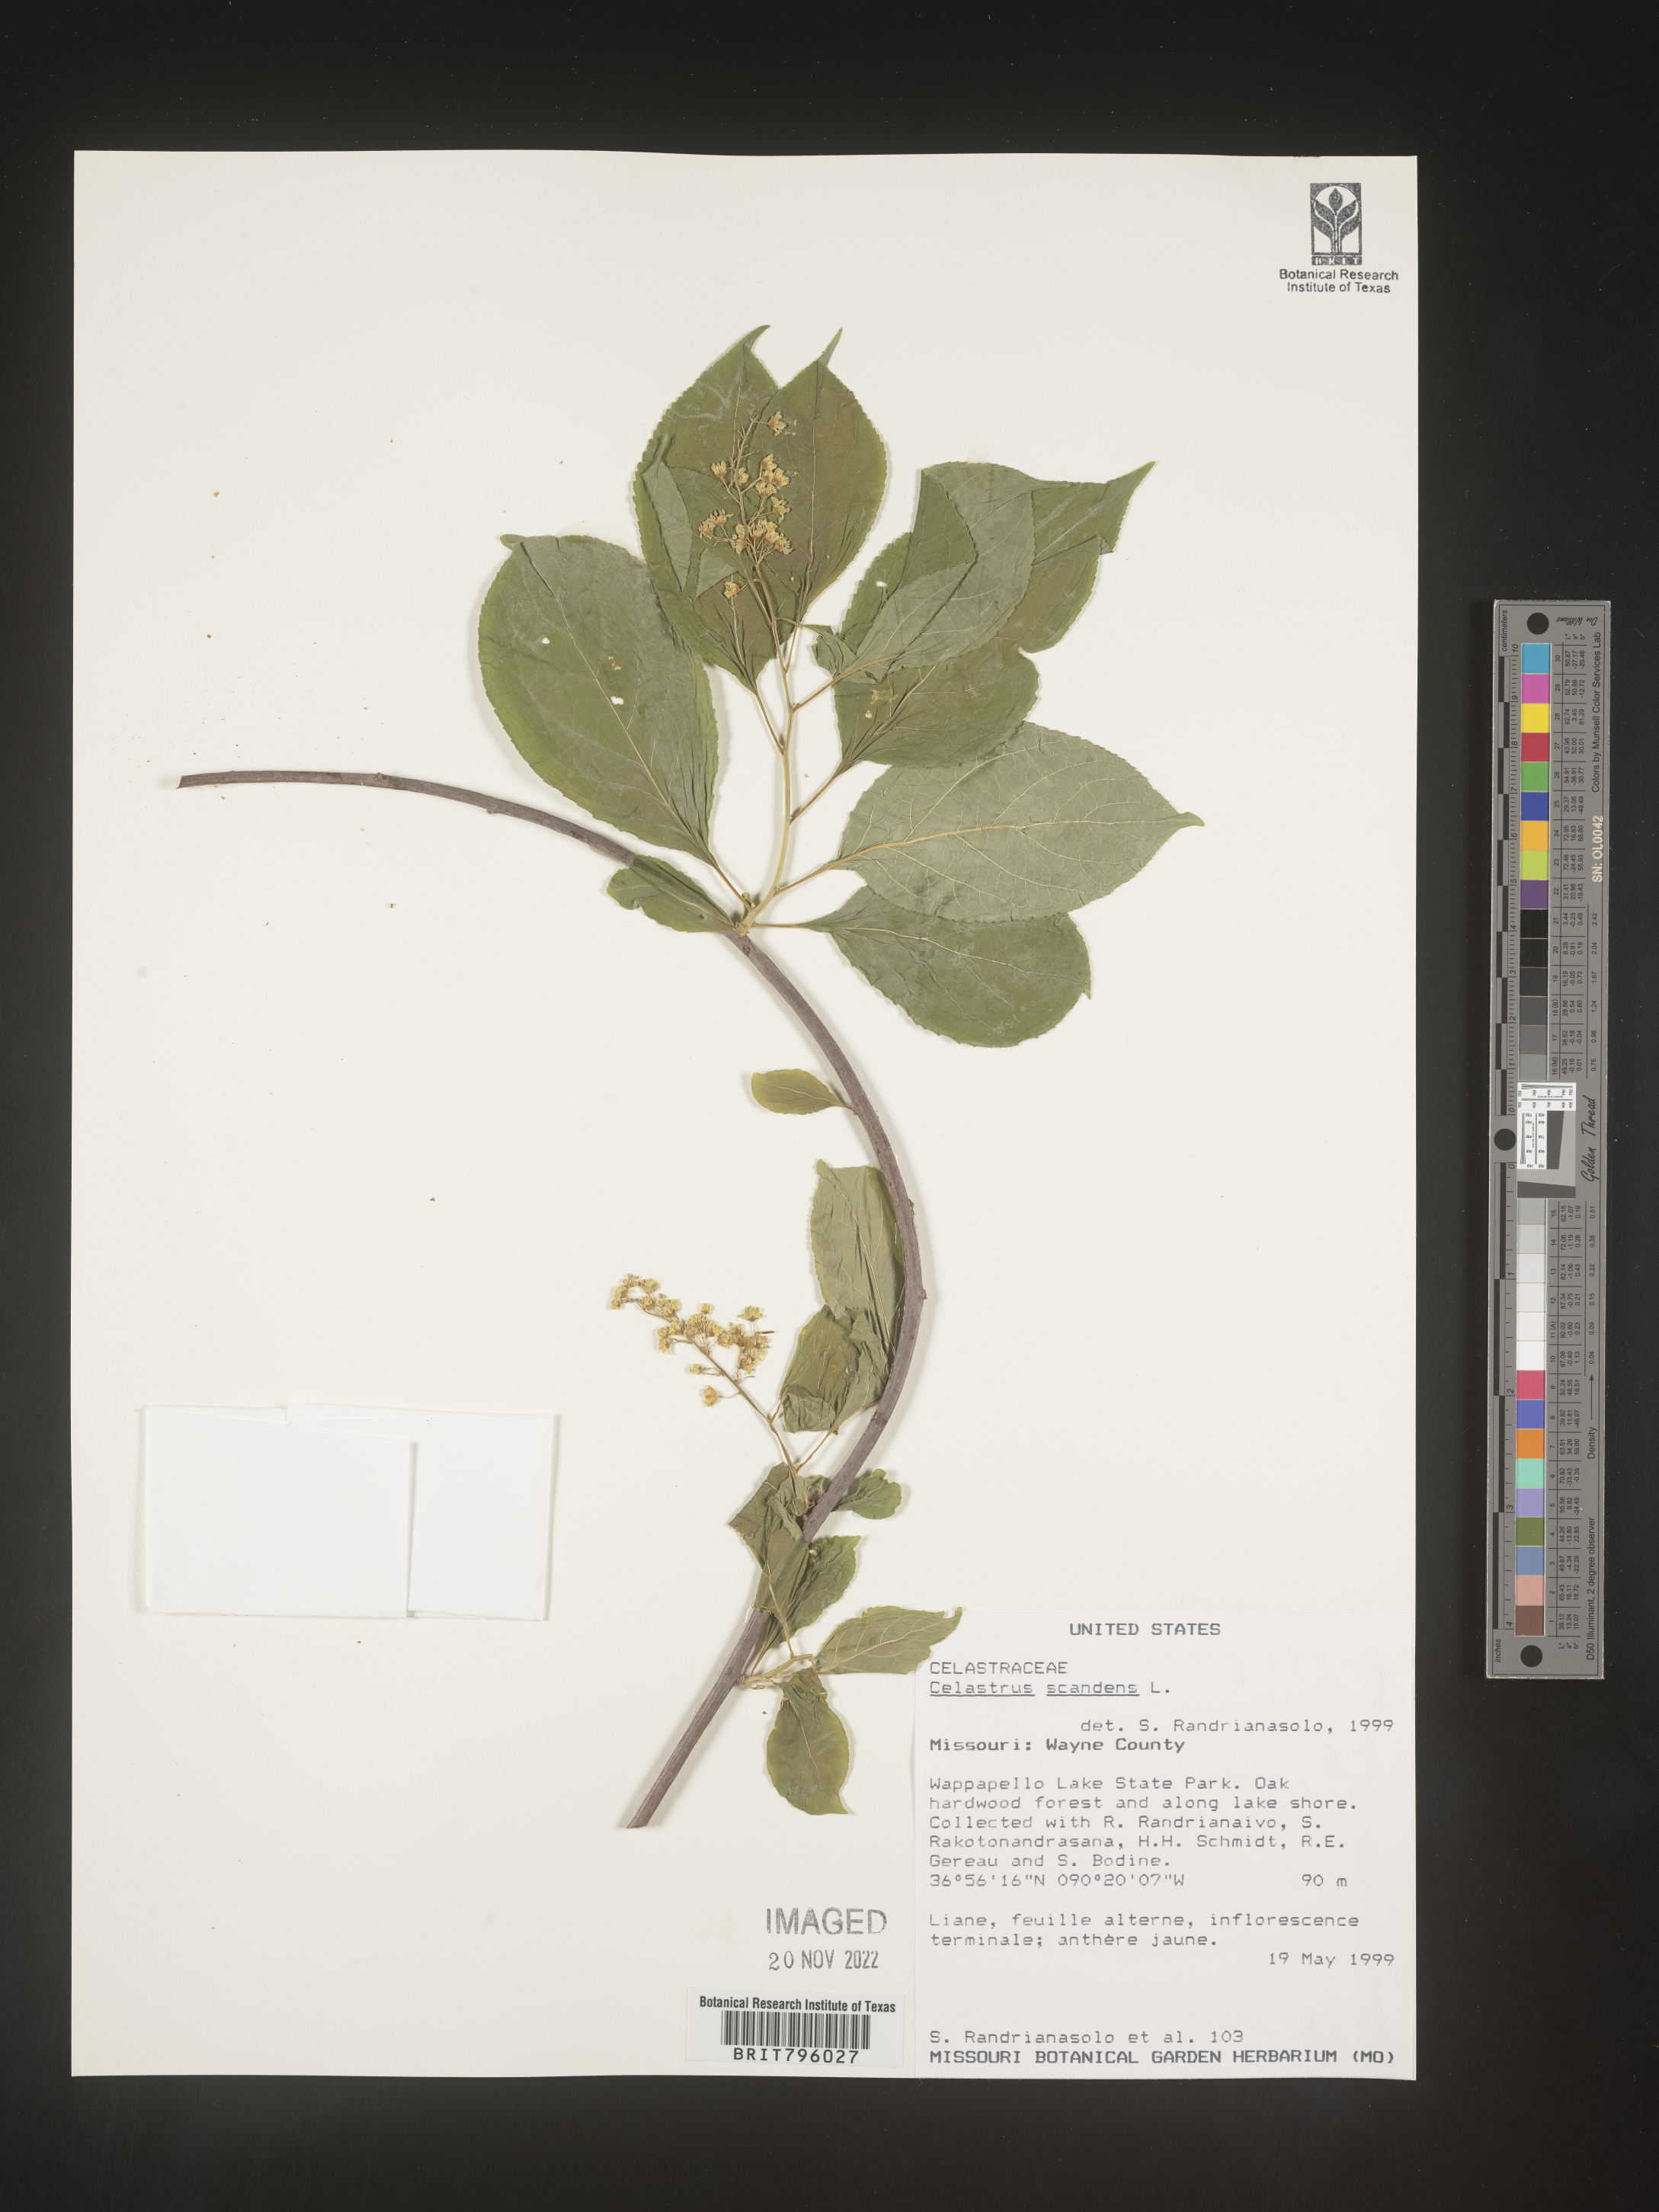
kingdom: Plantae
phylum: Tracheophyta
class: Magnoliopsida
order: Celastrales
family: Celastraceae
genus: Celastrus
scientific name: Celastrus scandens
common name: American bittersweet
